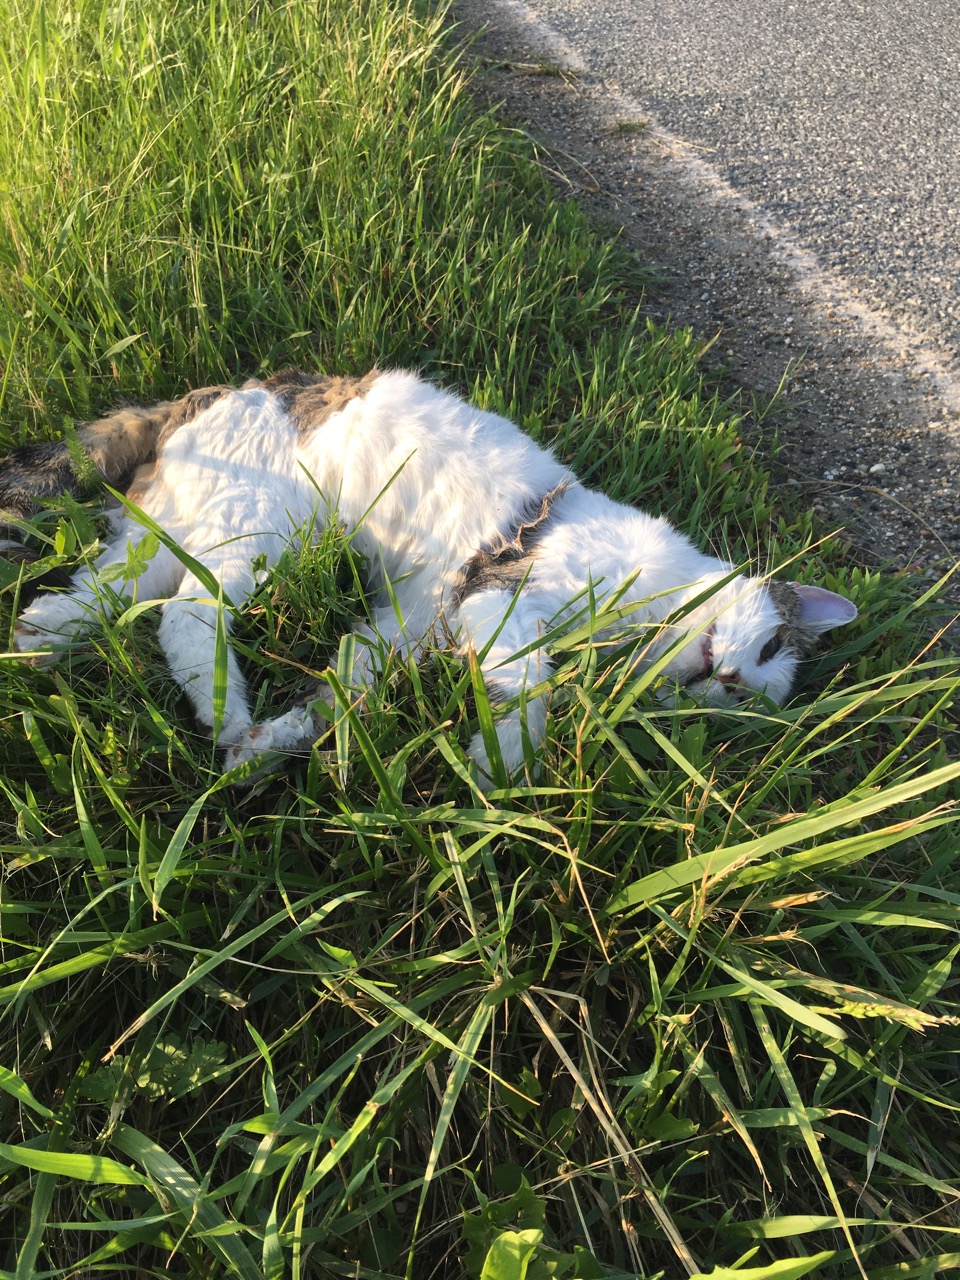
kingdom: Animalia
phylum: Chordata
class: Mammalia
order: Carnivora
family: Felidae
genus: Felis
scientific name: Felis catus
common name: Domestic cat
